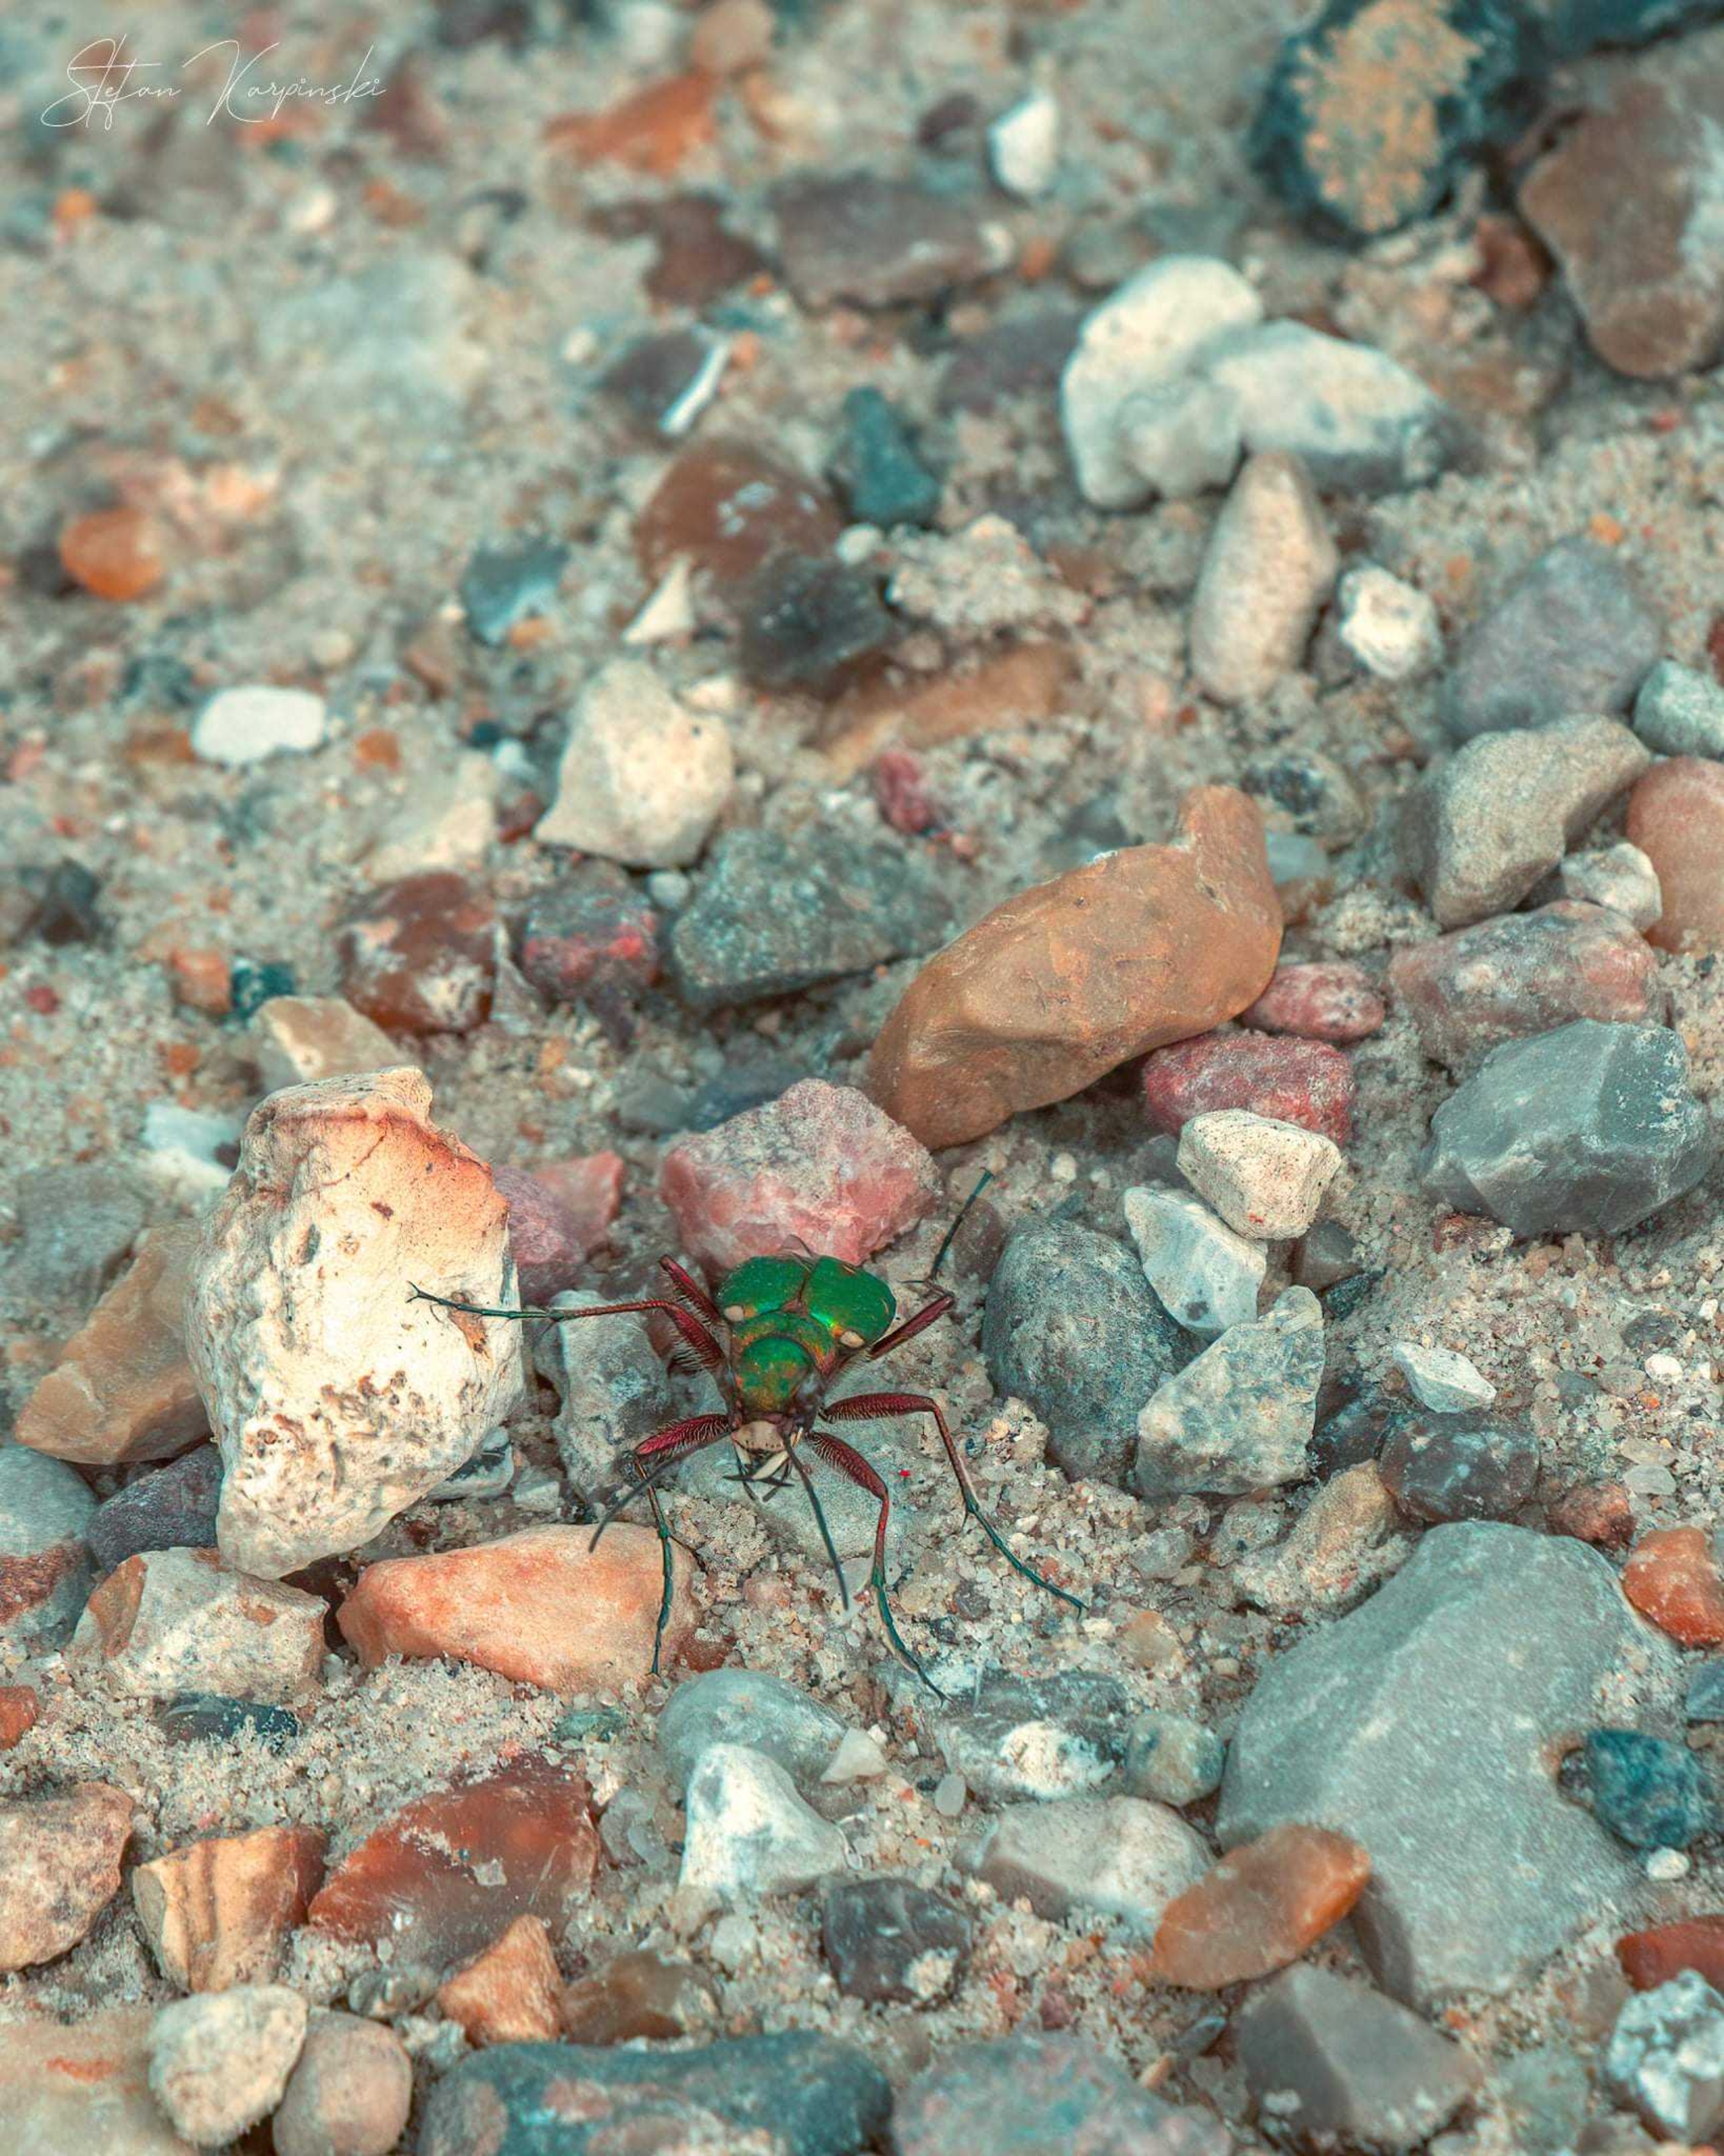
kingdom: Animalia
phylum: Arthropoda
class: Insecta
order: Coleoptera
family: Carabidae
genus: Cicindela
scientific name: Cicindela campestris
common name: Grøn sandspringer
